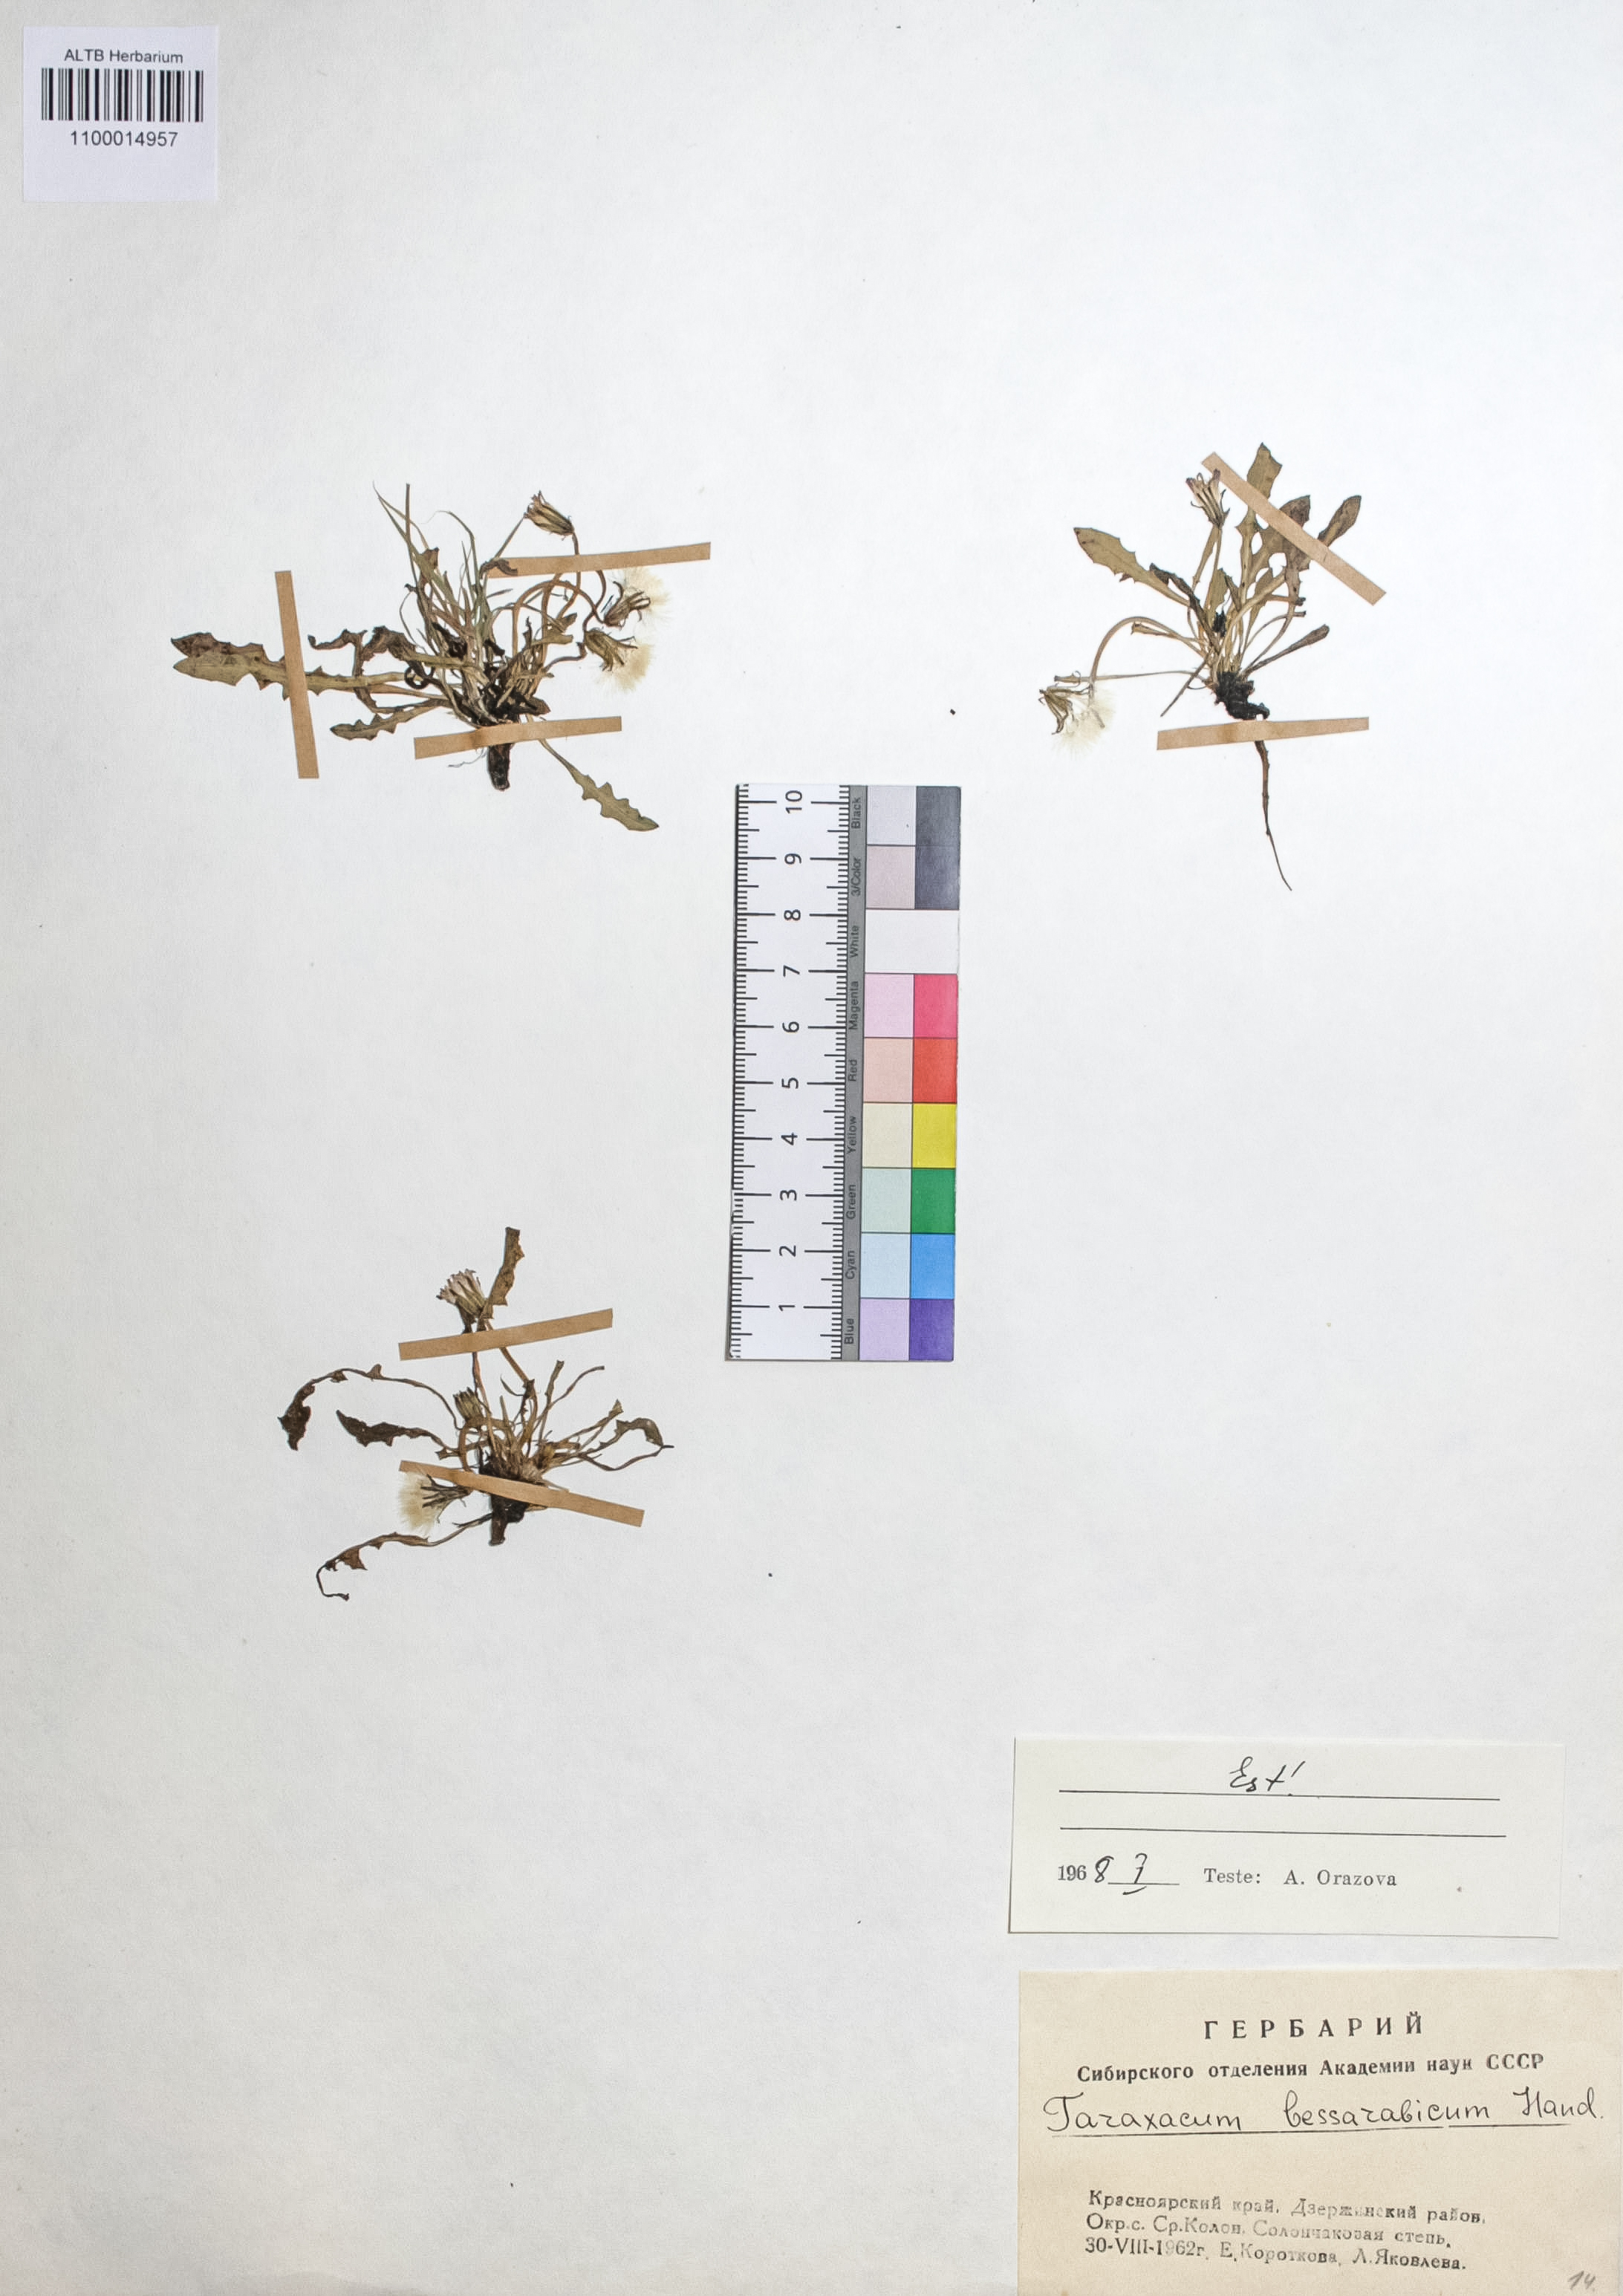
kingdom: Plantae
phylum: Tracheophyta
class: Magnoliopsida
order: Asterales
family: Asteraceae
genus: Taraxacum
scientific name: Taraxacum bessarabicum
